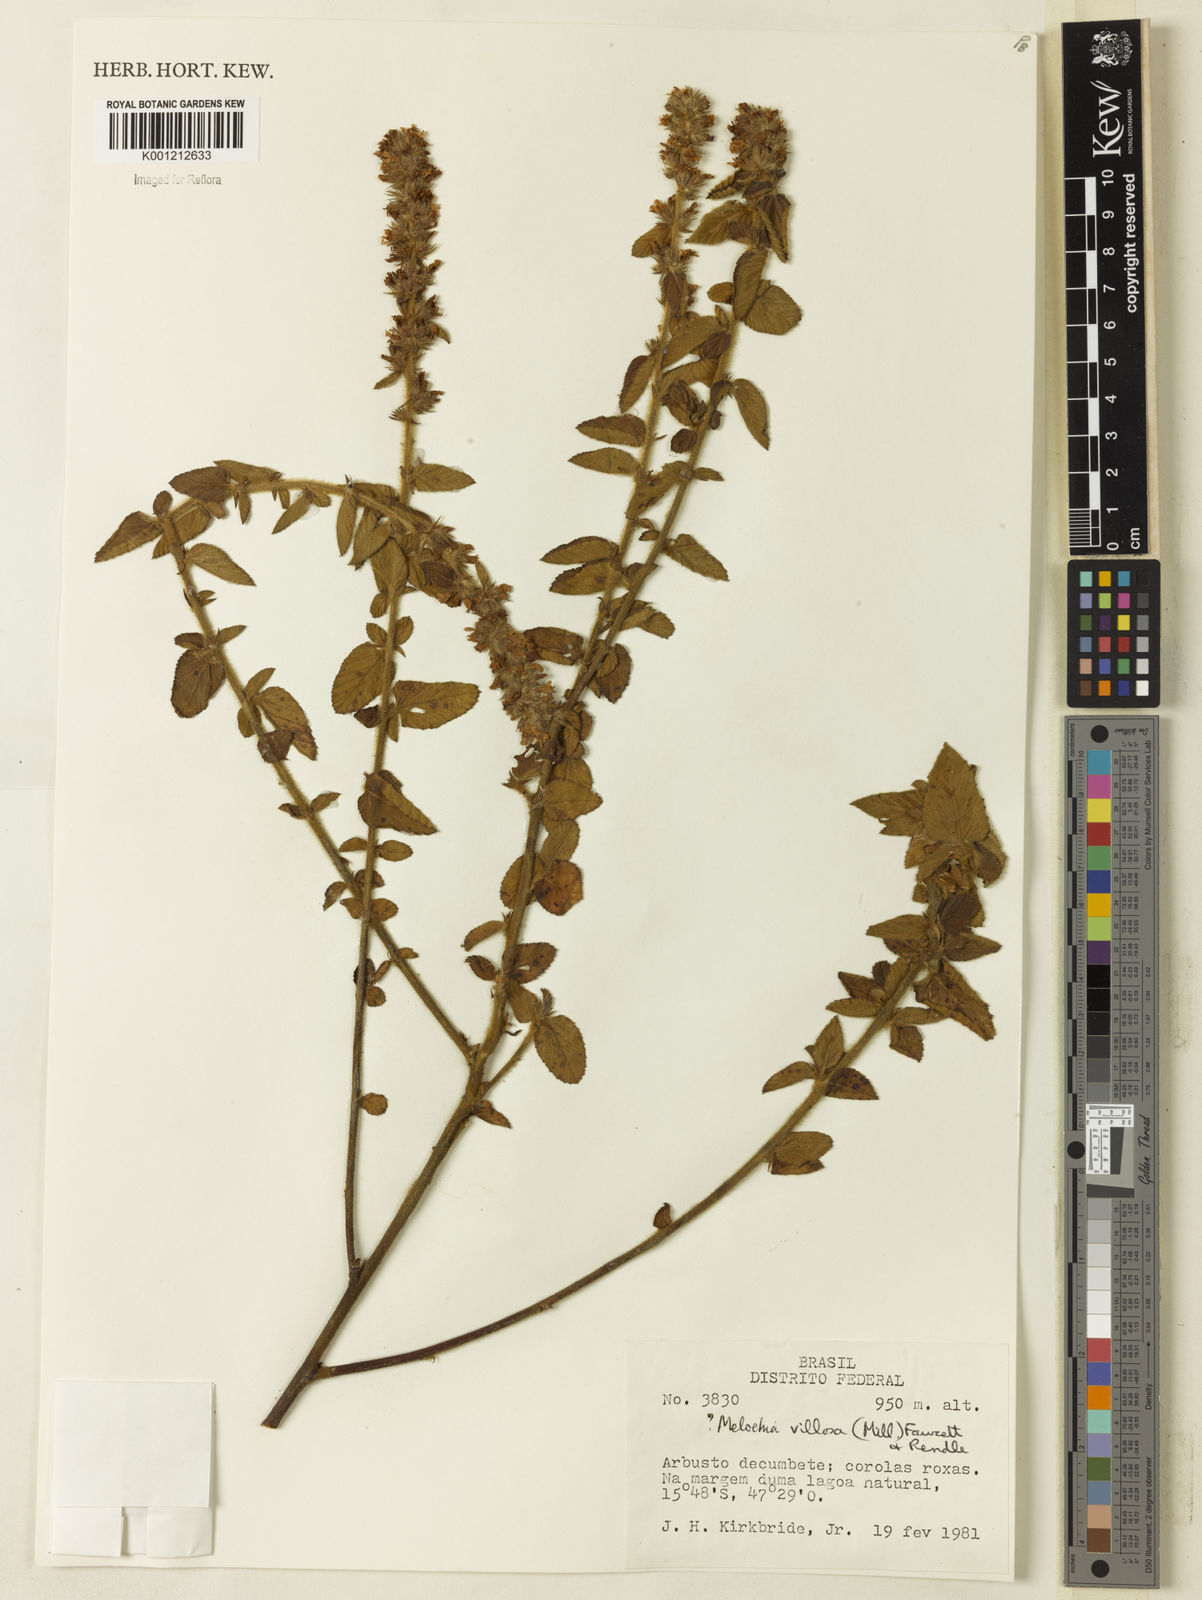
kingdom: Plantae
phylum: Tracheophyta
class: Magnoliopsida
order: Malvales
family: Malvaceae
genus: Melochia
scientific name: Melochia spicata
